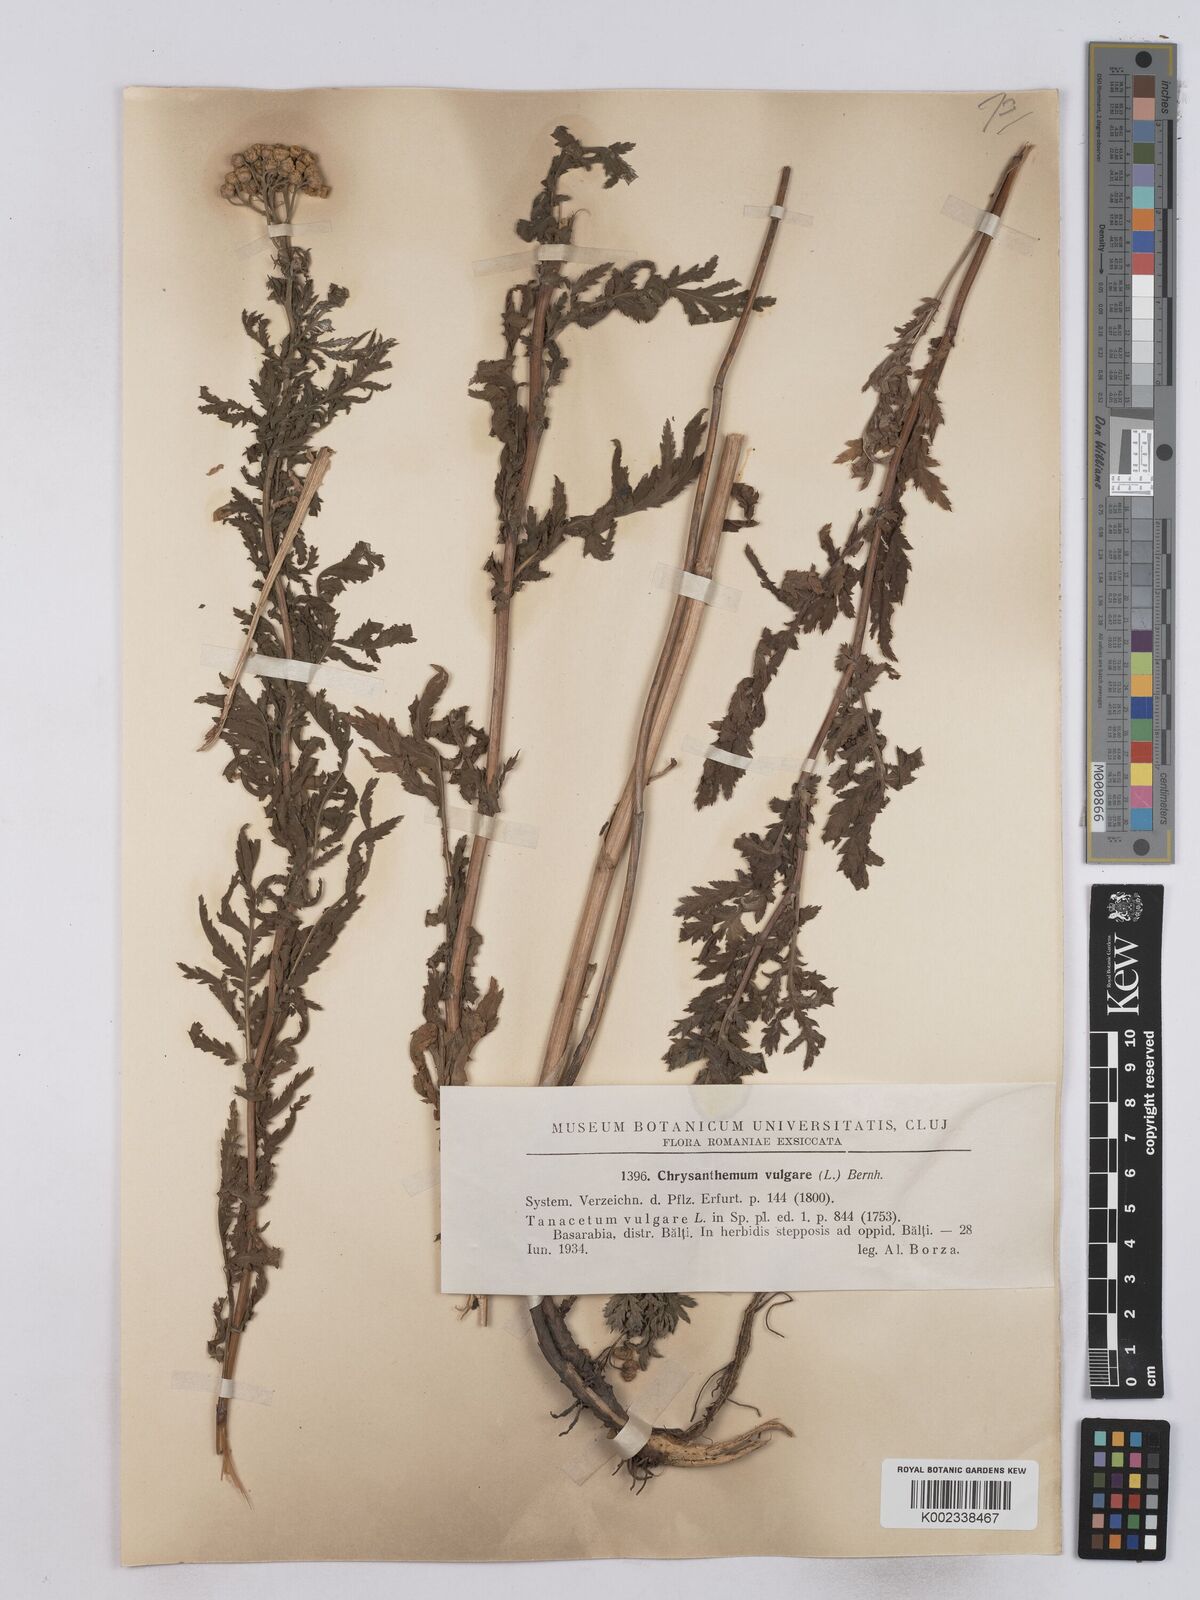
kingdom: Plantae
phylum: Tracheophyta
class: Magnoliopsida
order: Asterales
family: Asteraceae
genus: Tanacetum
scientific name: Tanacetum vulgare
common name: Common tansy
